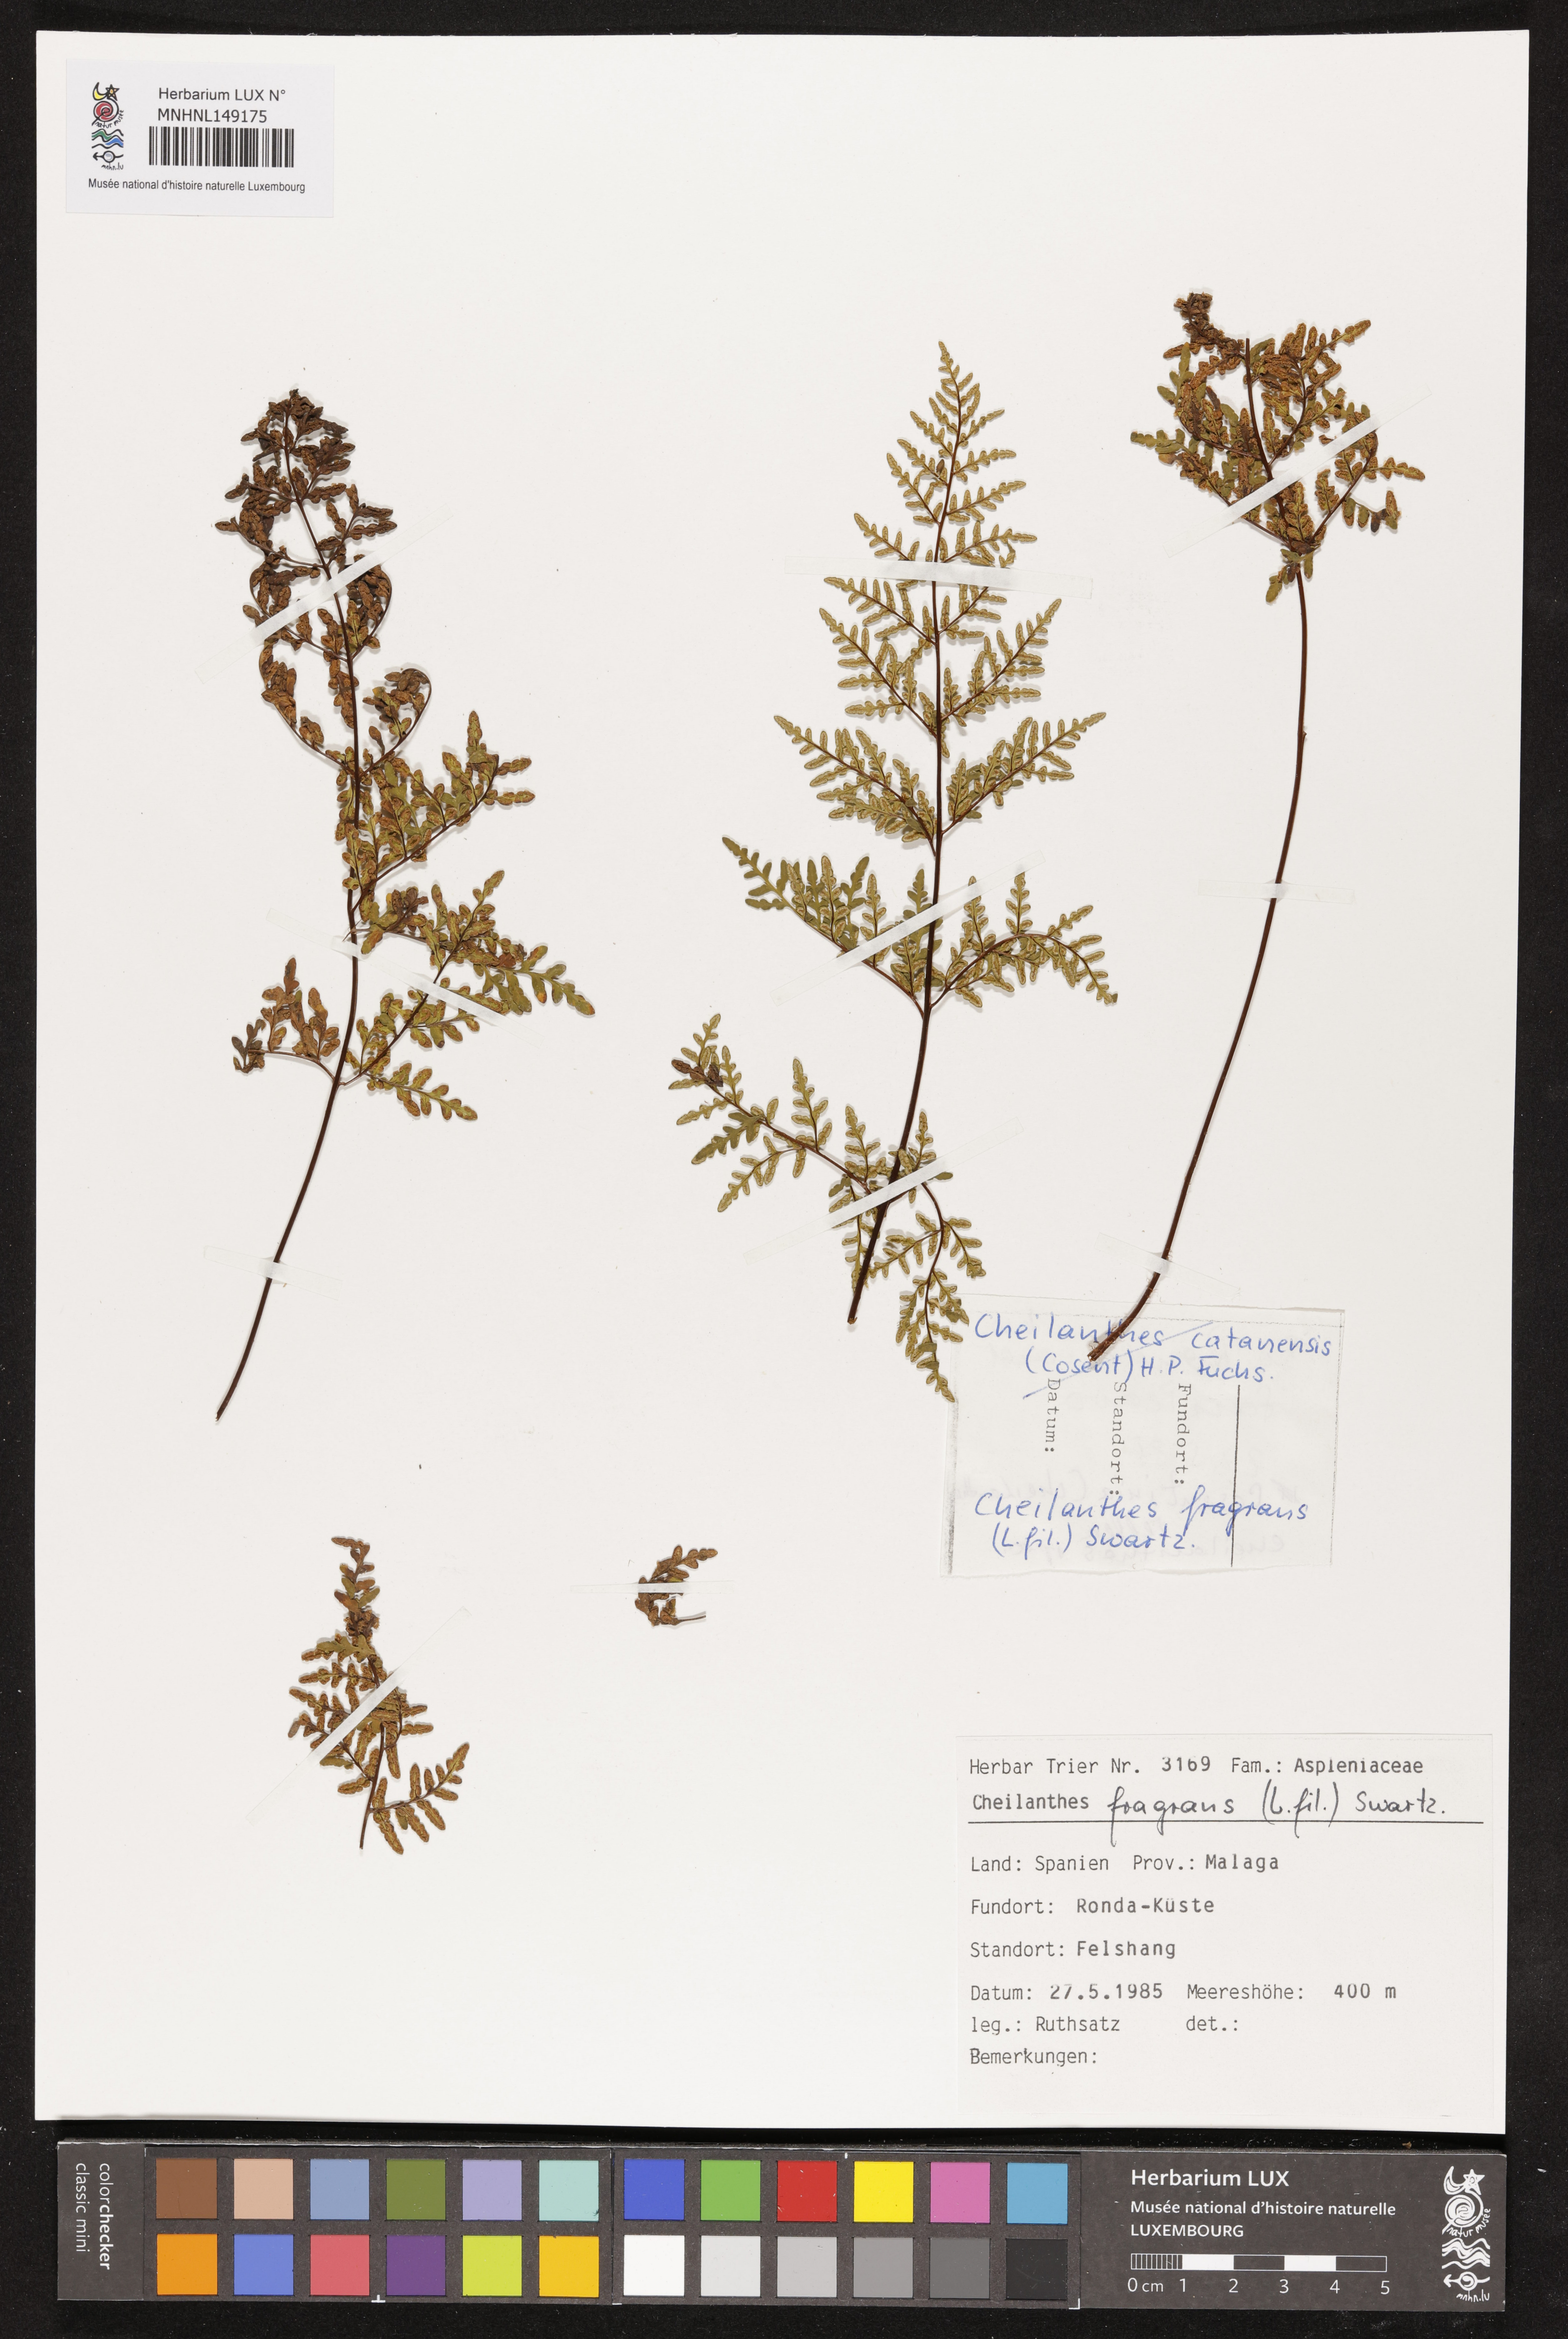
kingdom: Plantae
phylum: Tracheophyta
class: Polypodiopsida
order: Polypodiales
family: Pteridaceae
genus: Oeosporangium
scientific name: Oeosporangium pteridioides
